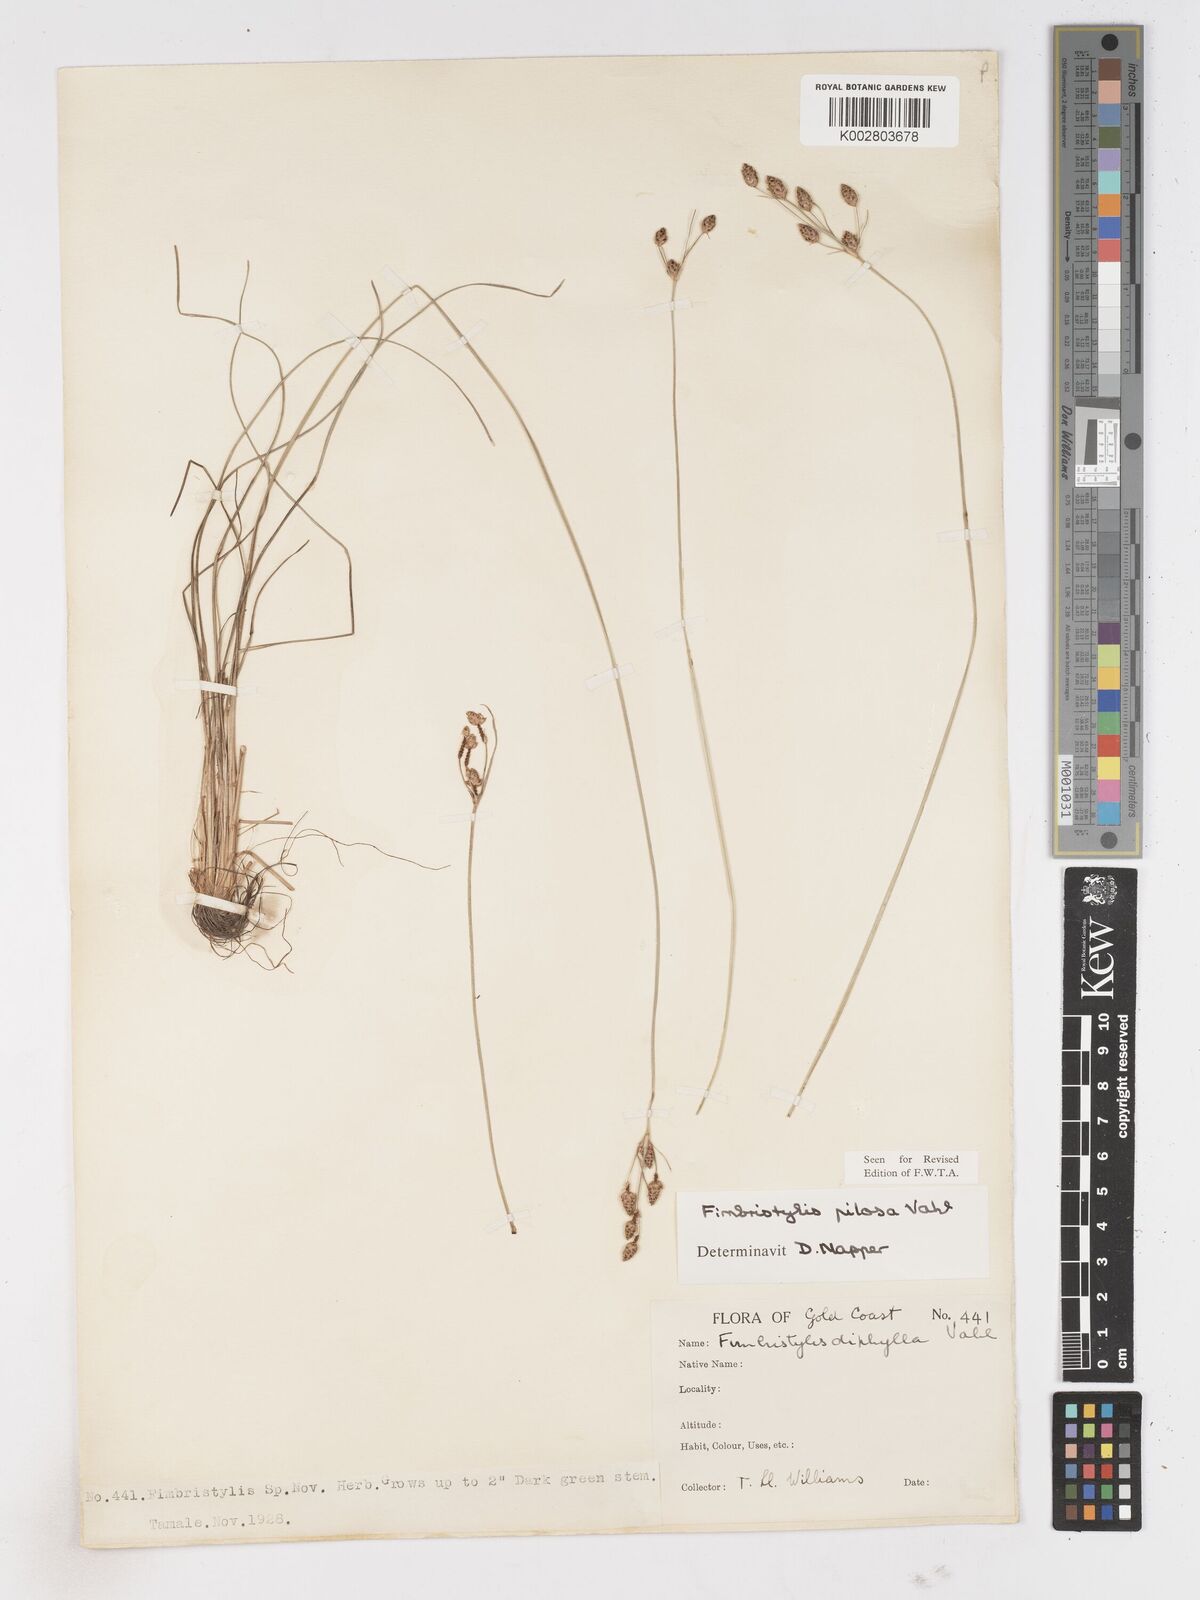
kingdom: Plantae
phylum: Tracheophyta
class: Liliopsida
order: Poales
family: Cyperaceae
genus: Fimbristylis
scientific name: Fimbristylis pilosa
